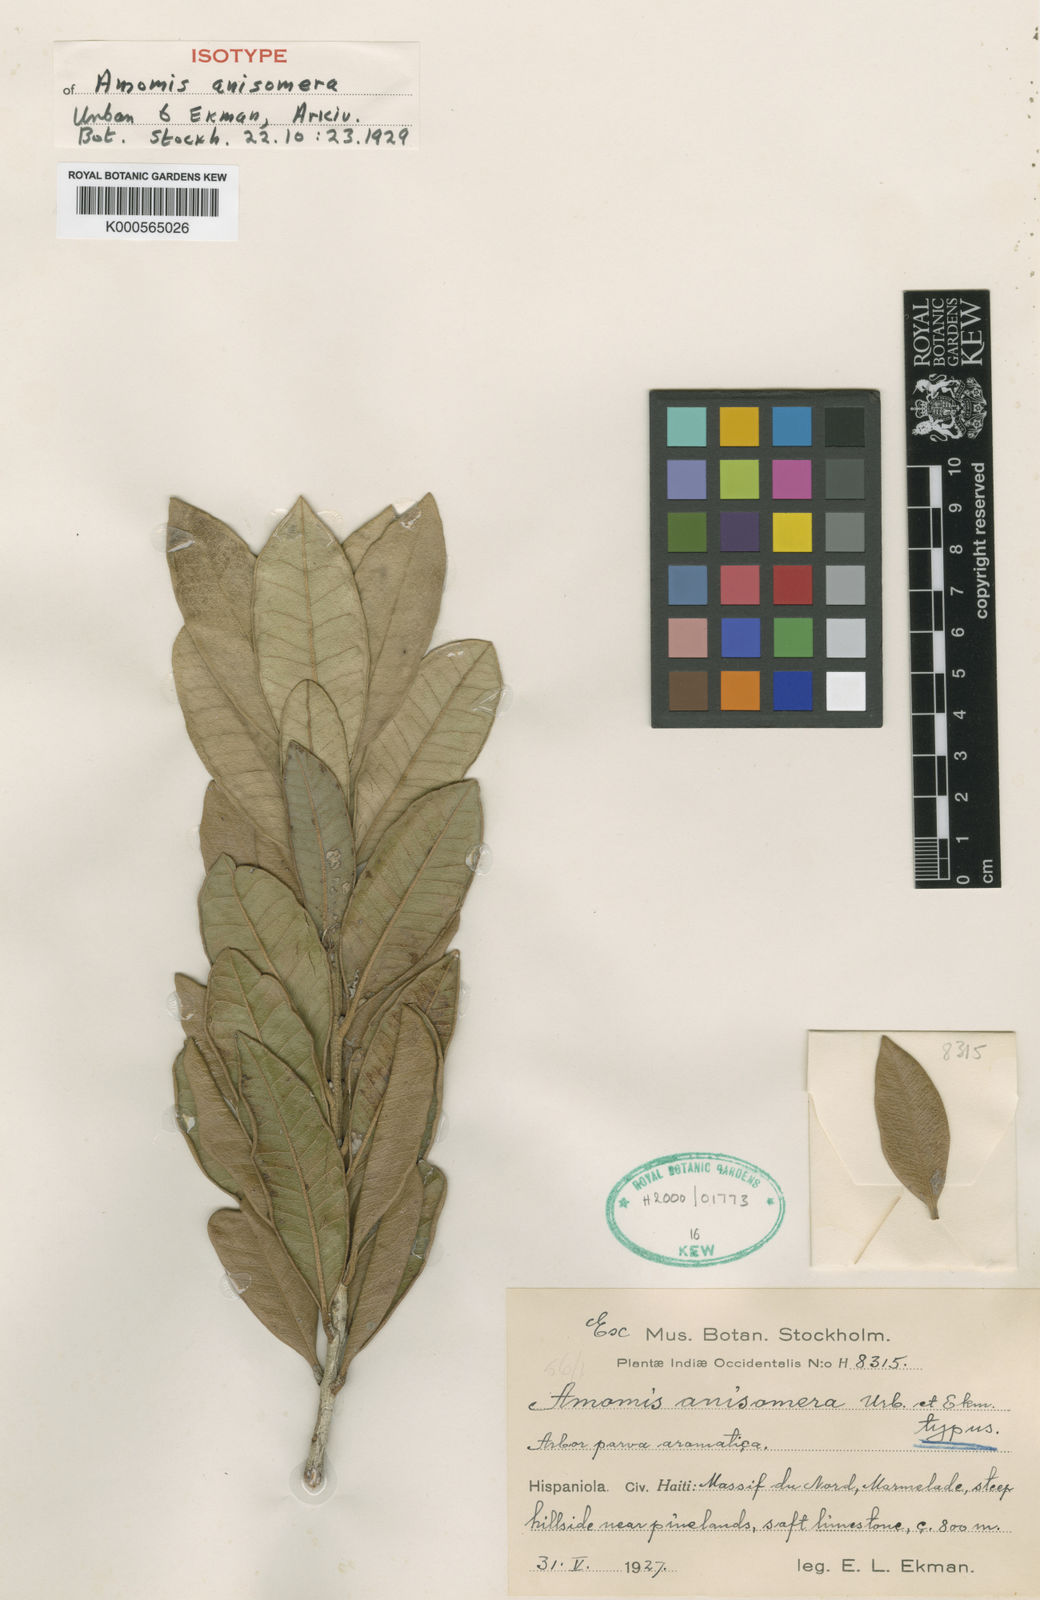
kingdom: Plantae
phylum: Tracheophyta
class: Magnoliopsida
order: Myrtales
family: Myrtaceae
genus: Pimenta
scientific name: Pimenta racemosa
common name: Bay rum tree
